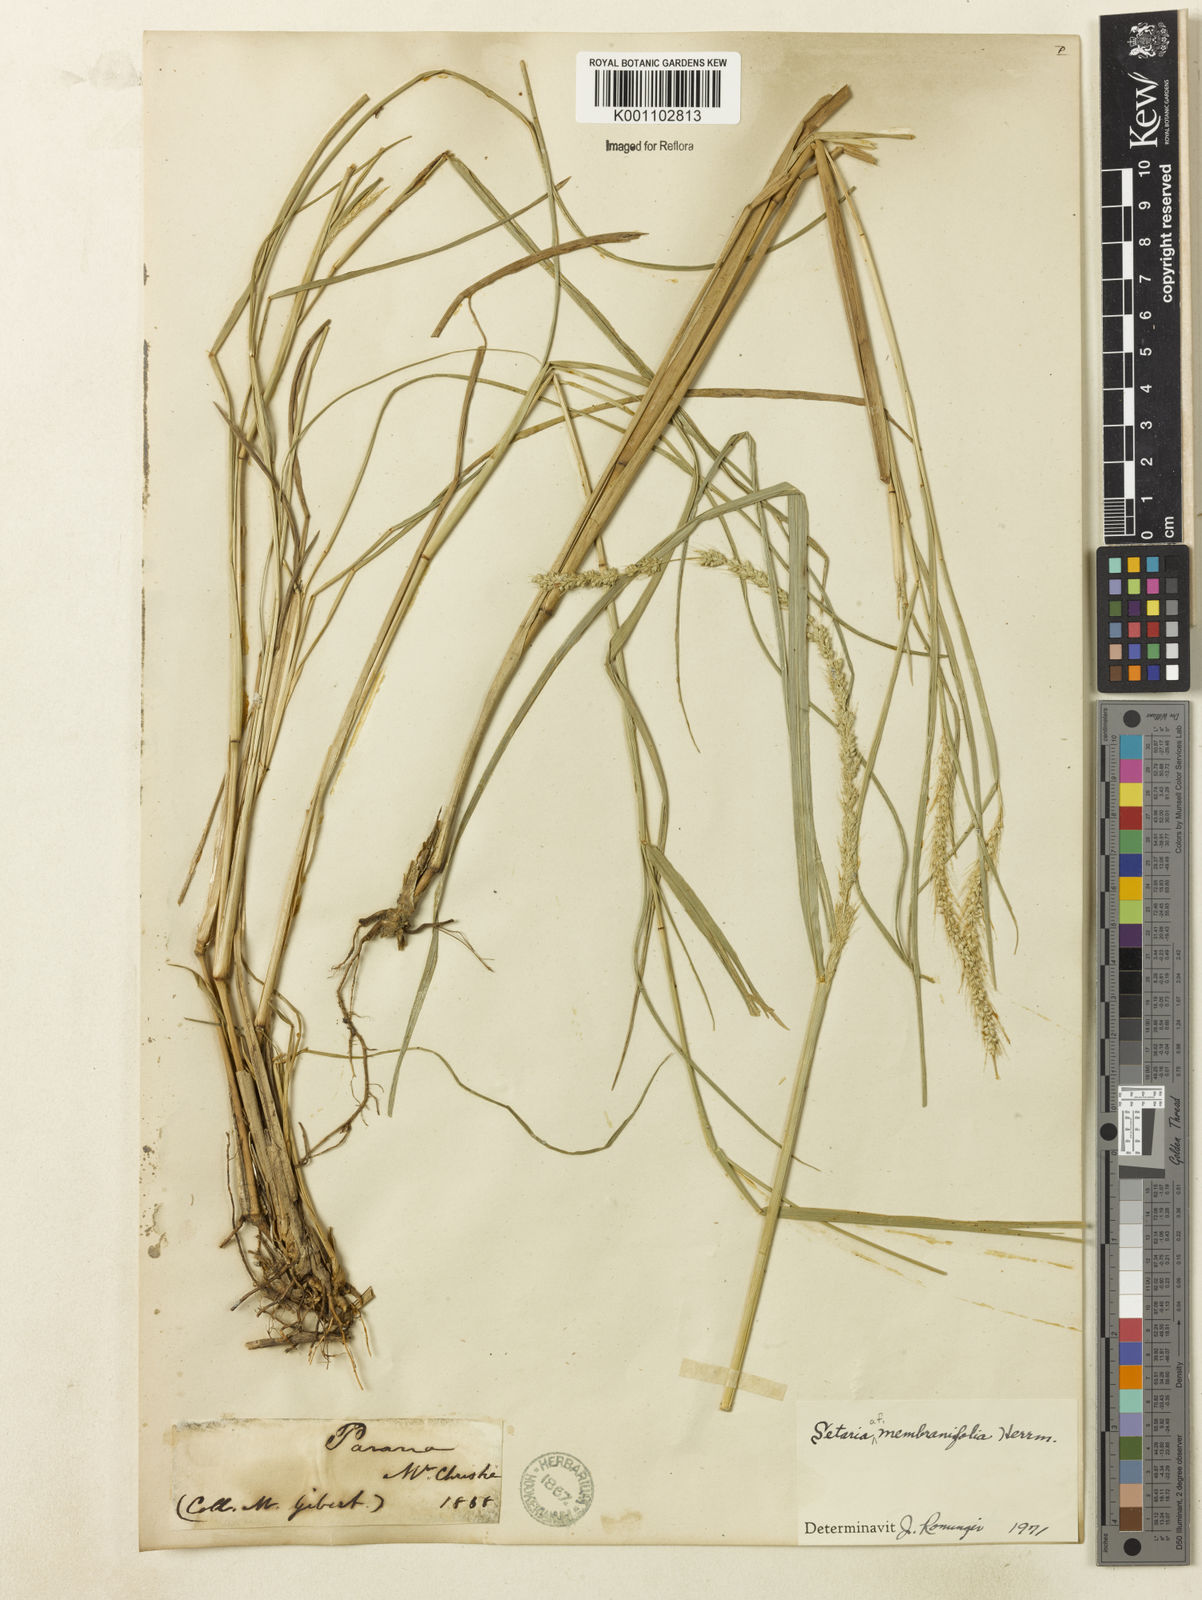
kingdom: Plantae
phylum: Tracheophyta
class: Liliopsida
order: Poales
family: Poaceae
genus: Setaria
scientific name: Setaria setosa
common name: West indies bristle grass
